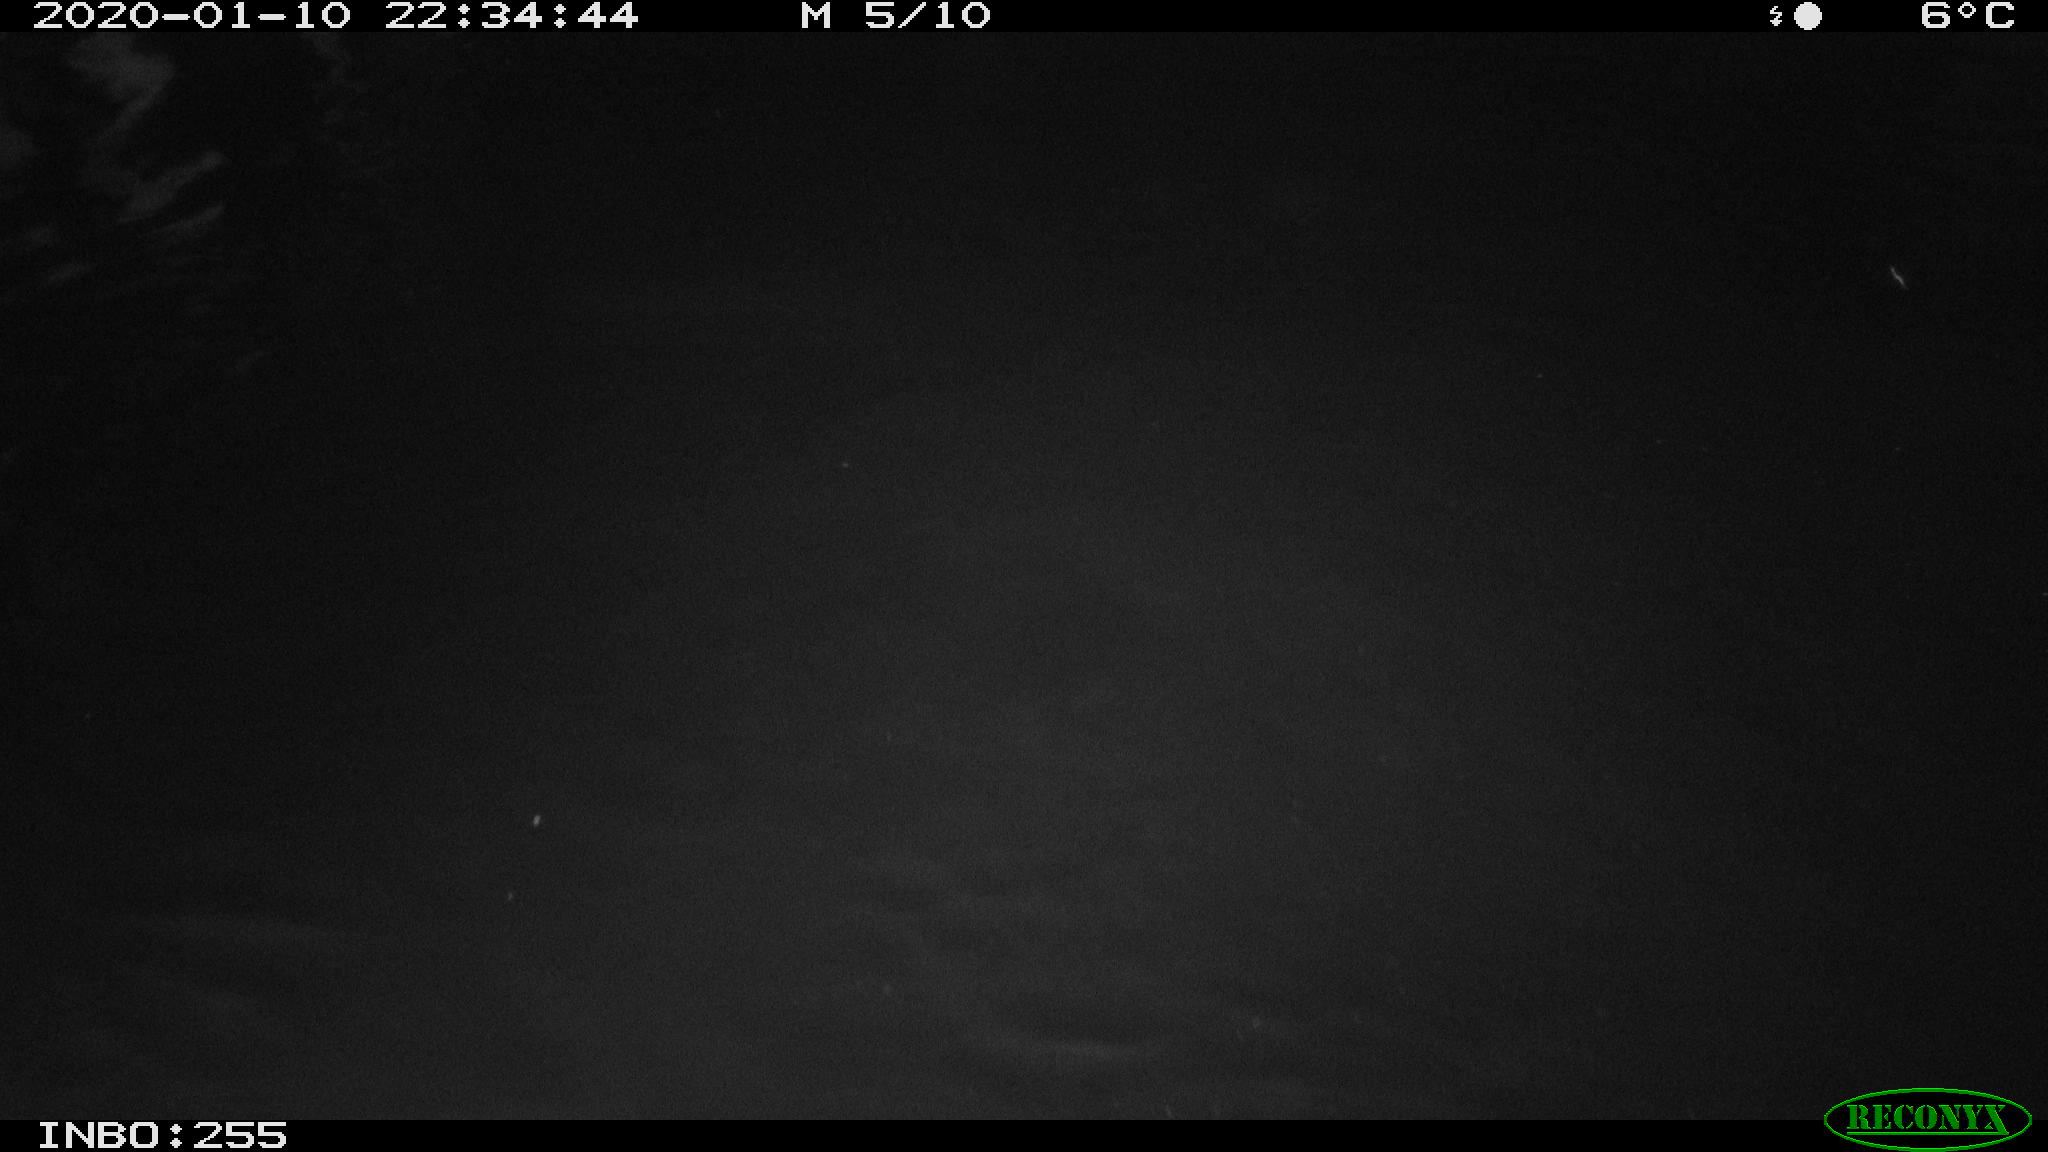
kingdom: Animalia
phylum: Chordata
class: Aves
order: Anseriformes
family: Anatidae
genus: Anas
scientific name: Anas platyrhynchos
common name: Mallard
